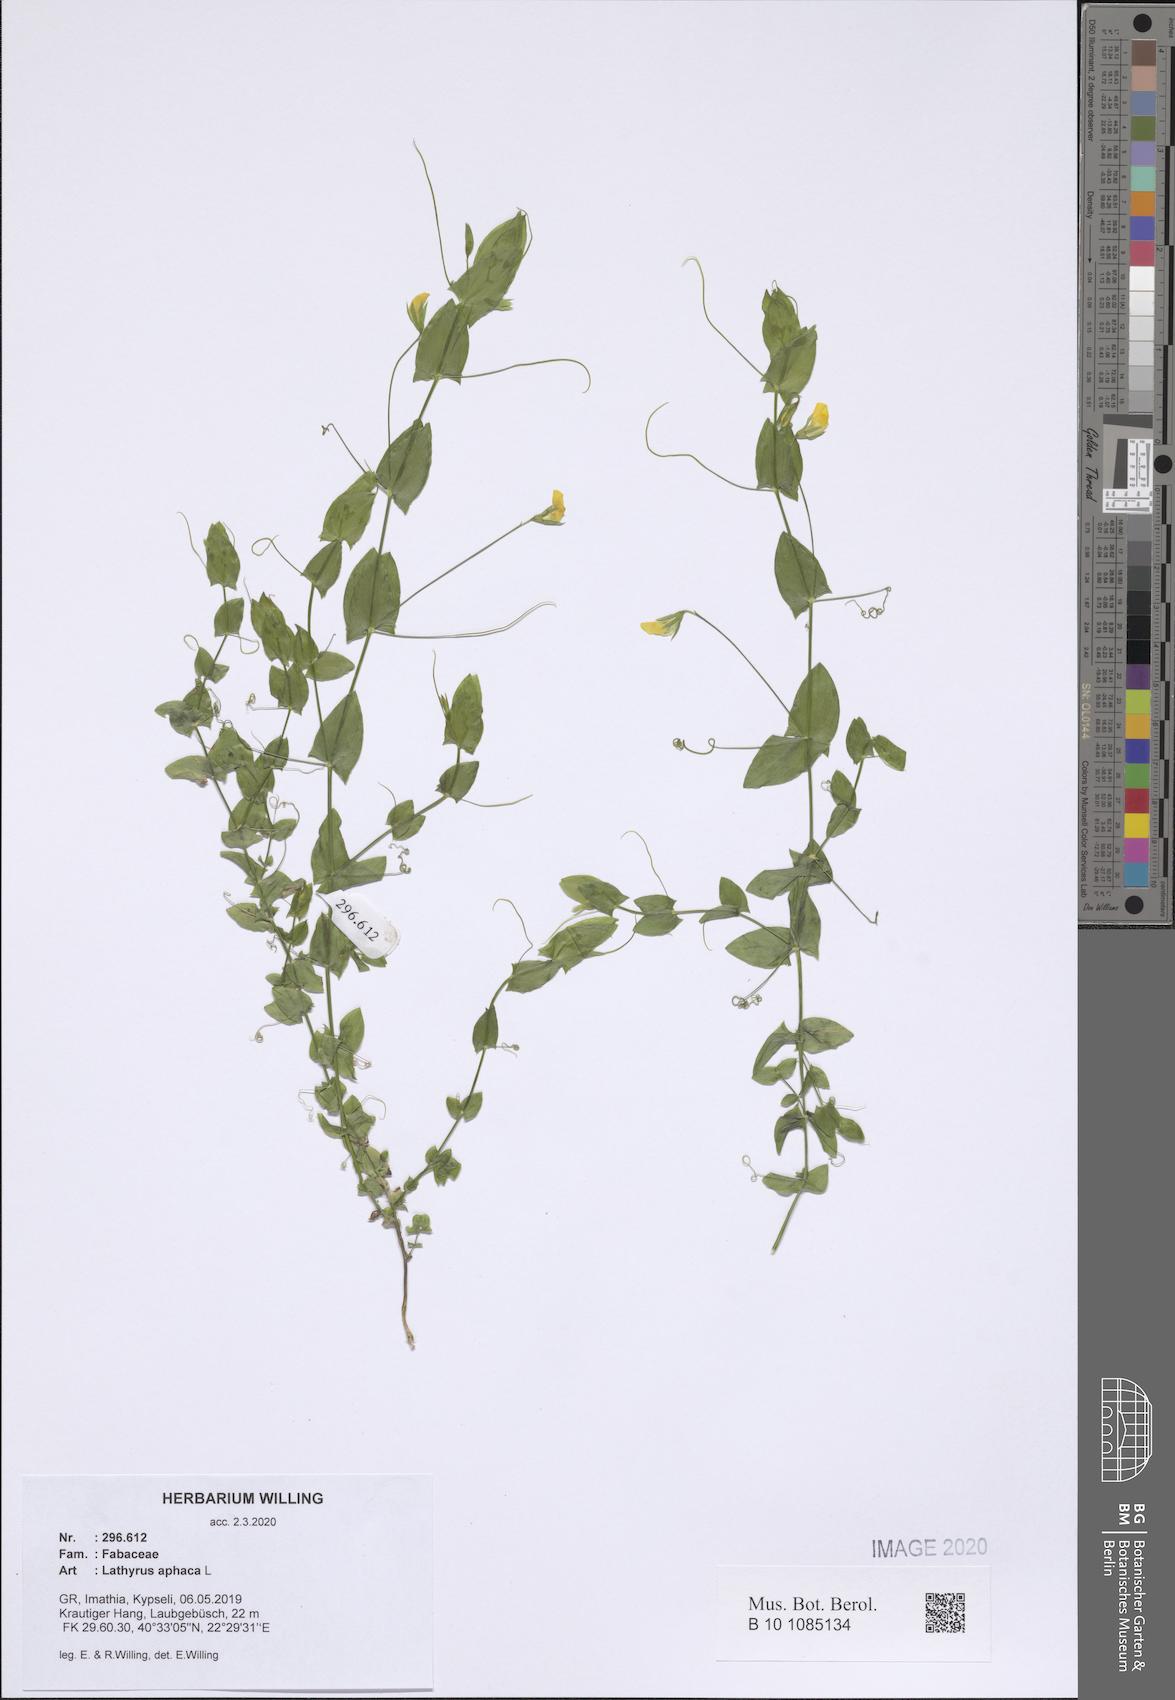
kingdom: Plantae
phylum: Tracheophyta
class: Magnoliopsida
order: Fabales
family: Fabaceae
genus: Lathyrus
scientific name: Lathyrus aphaca
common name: Yellow vetchling
